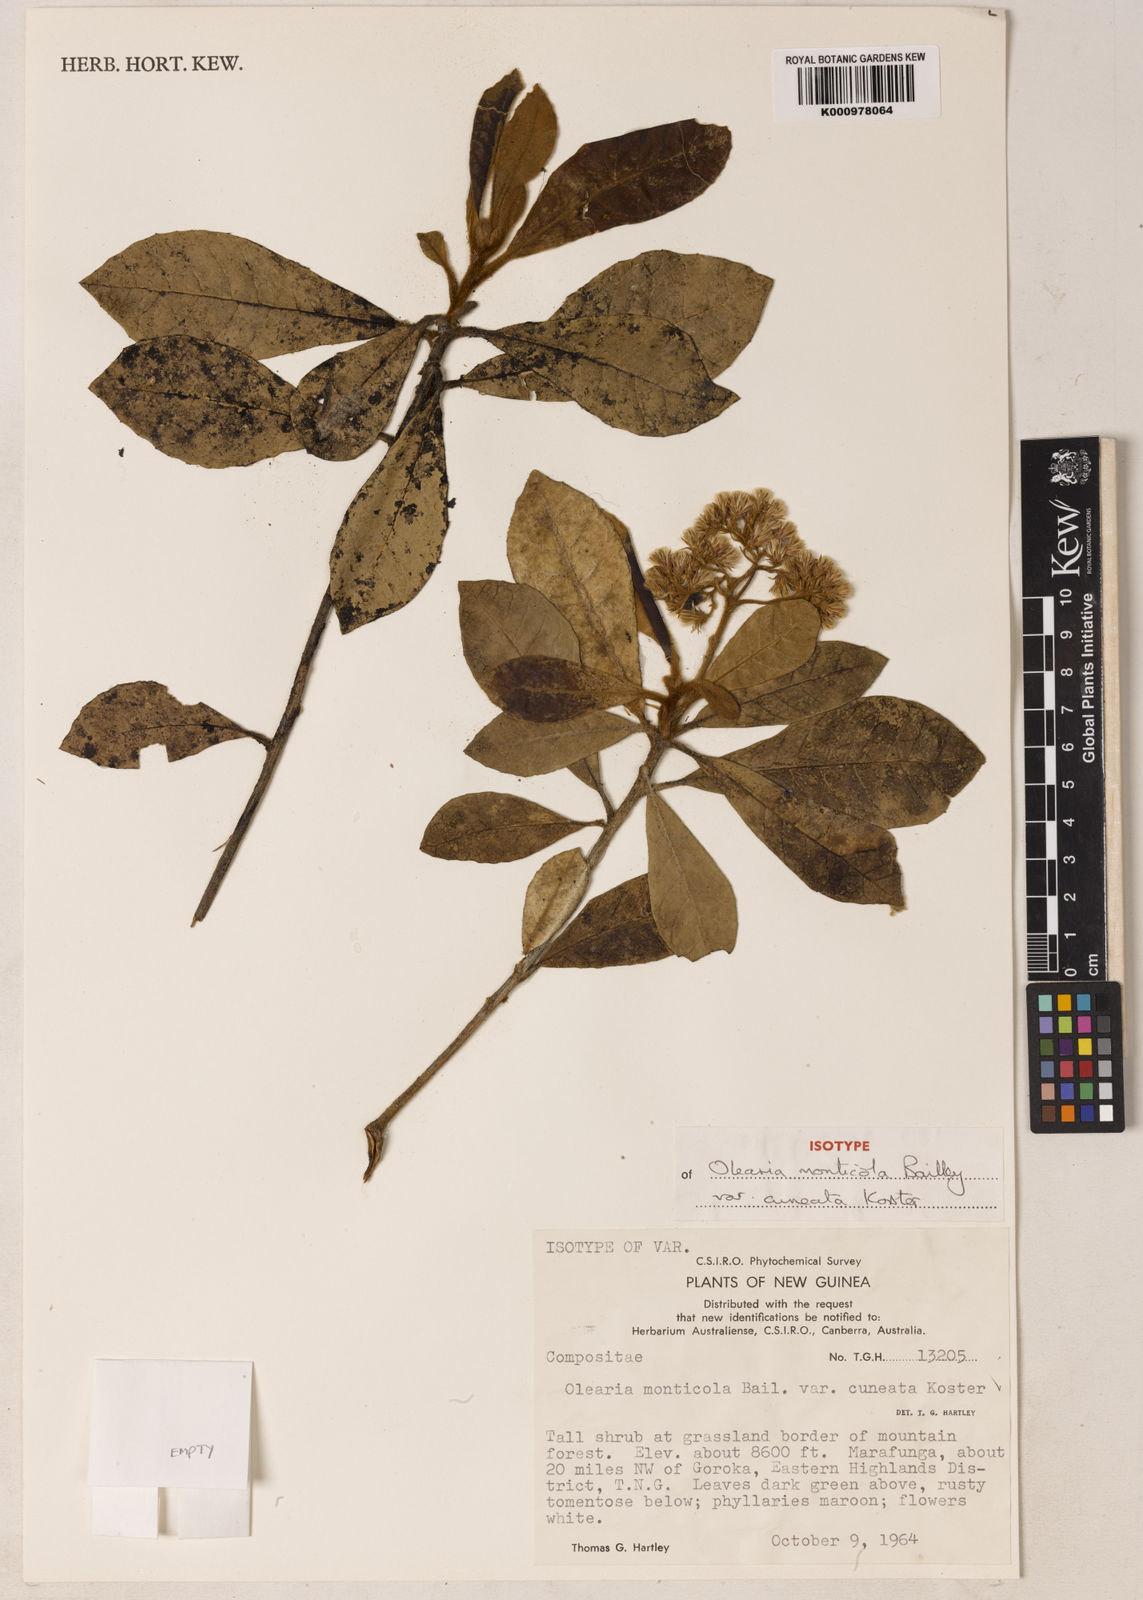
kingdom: Plantae
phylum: Tracheophyta
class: Magnoliopsida
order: Asterales
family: Asteraceae
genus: Olearia
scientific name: Olearia monticola
